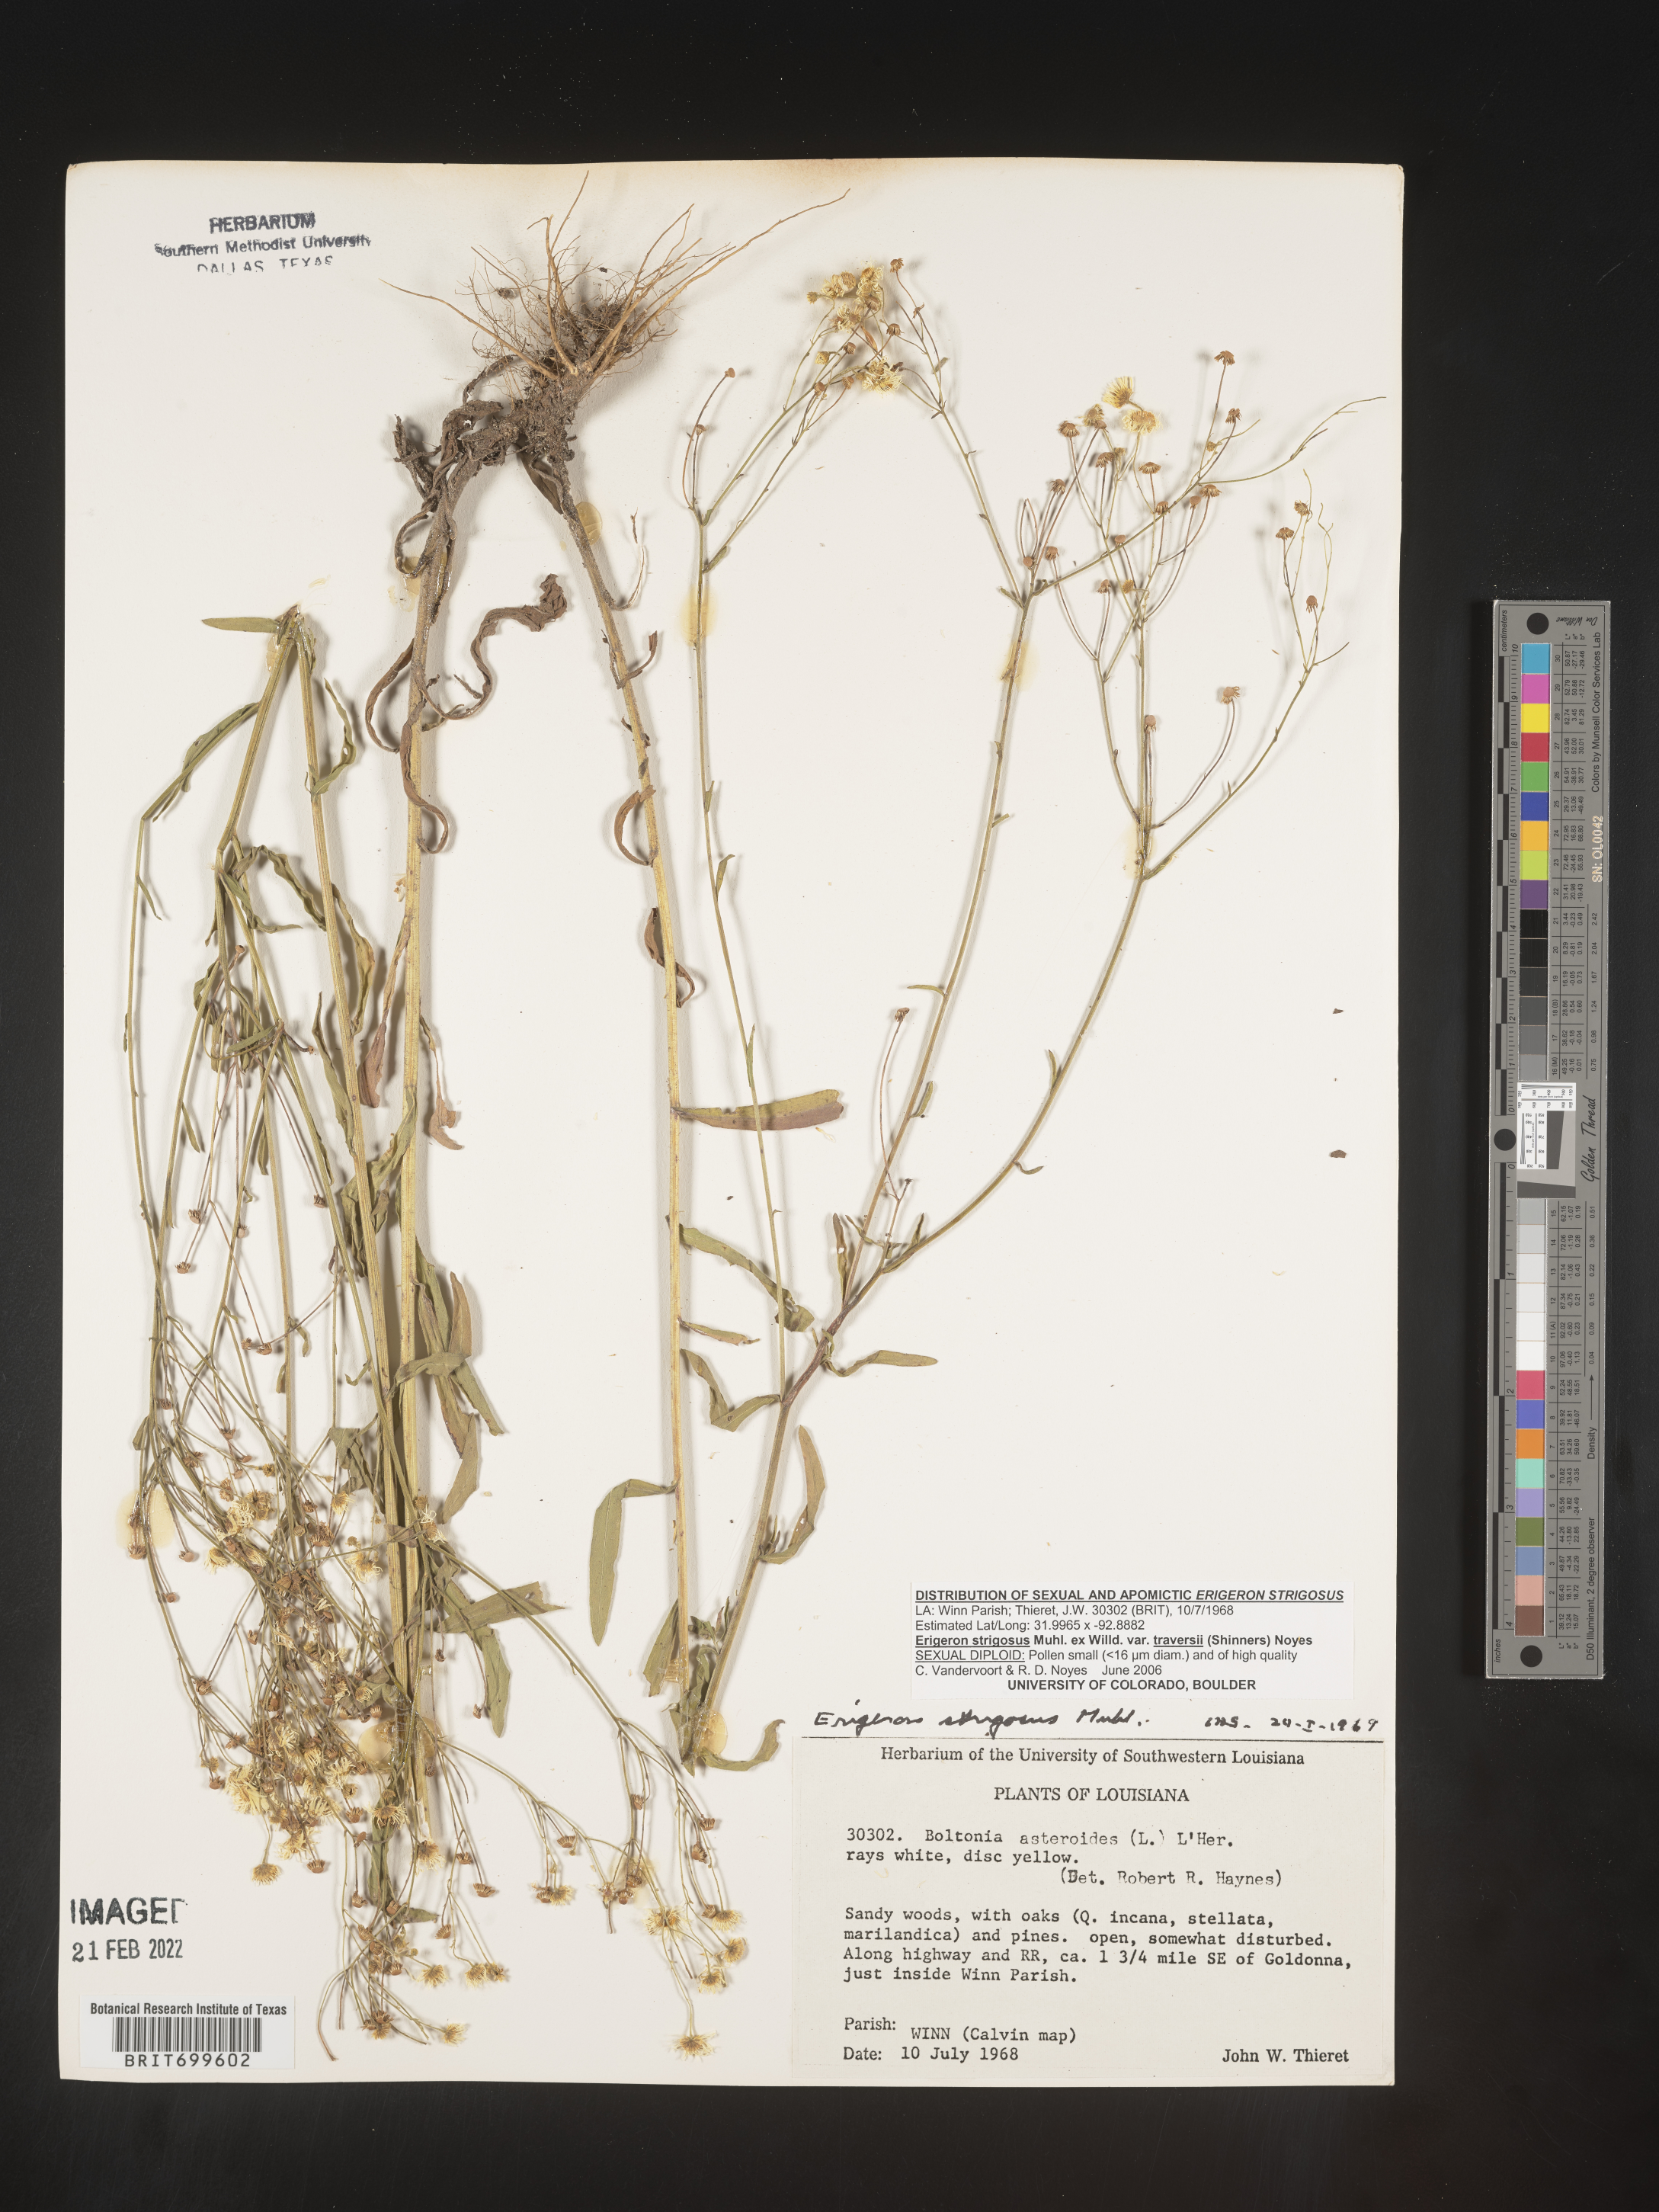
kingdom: Plantae
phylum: Tracheophyta
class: Magnoliopsida
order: Asterales
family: Asteraceae
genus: Erigeron
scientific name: Erigeron strigosus
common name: Common eastern fleabane
